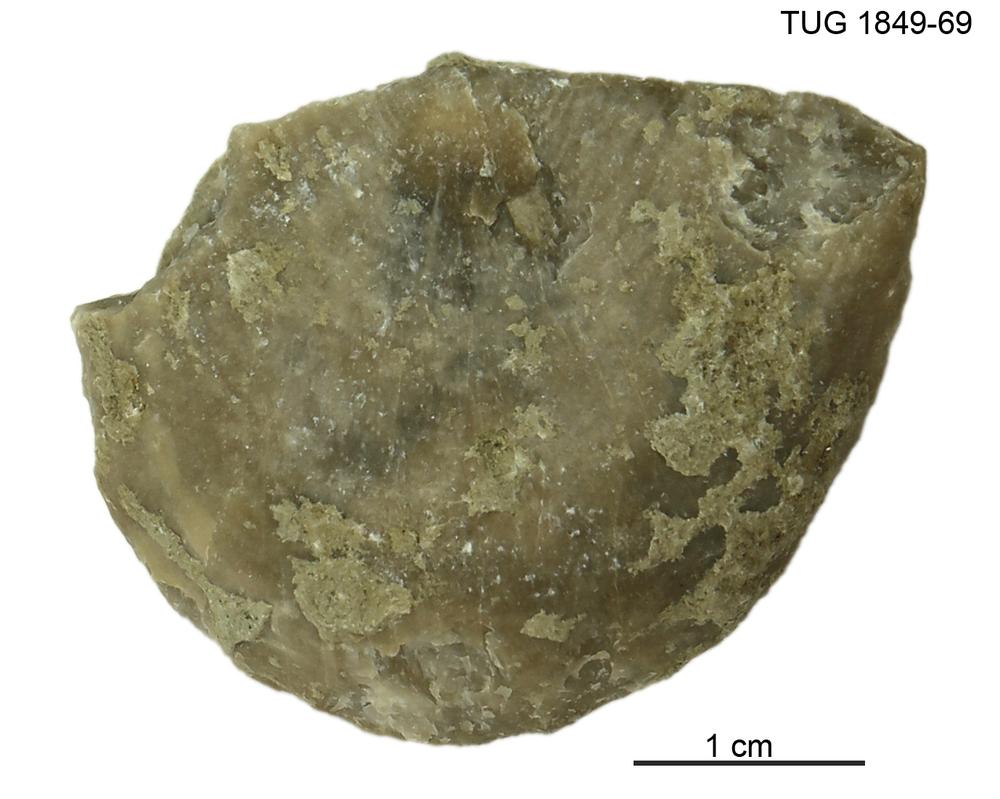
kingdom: Animalia
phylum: Brachiopoda
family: Strophomenidae
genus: Leptaena
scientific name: Leptaena
